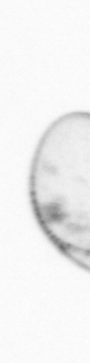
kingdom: Chromista
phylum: Myzozoa
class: Dinophyceae
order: Noctilucales
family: Noctilucaceae
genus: Noctiluca
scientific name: Noctiluca scintillans
